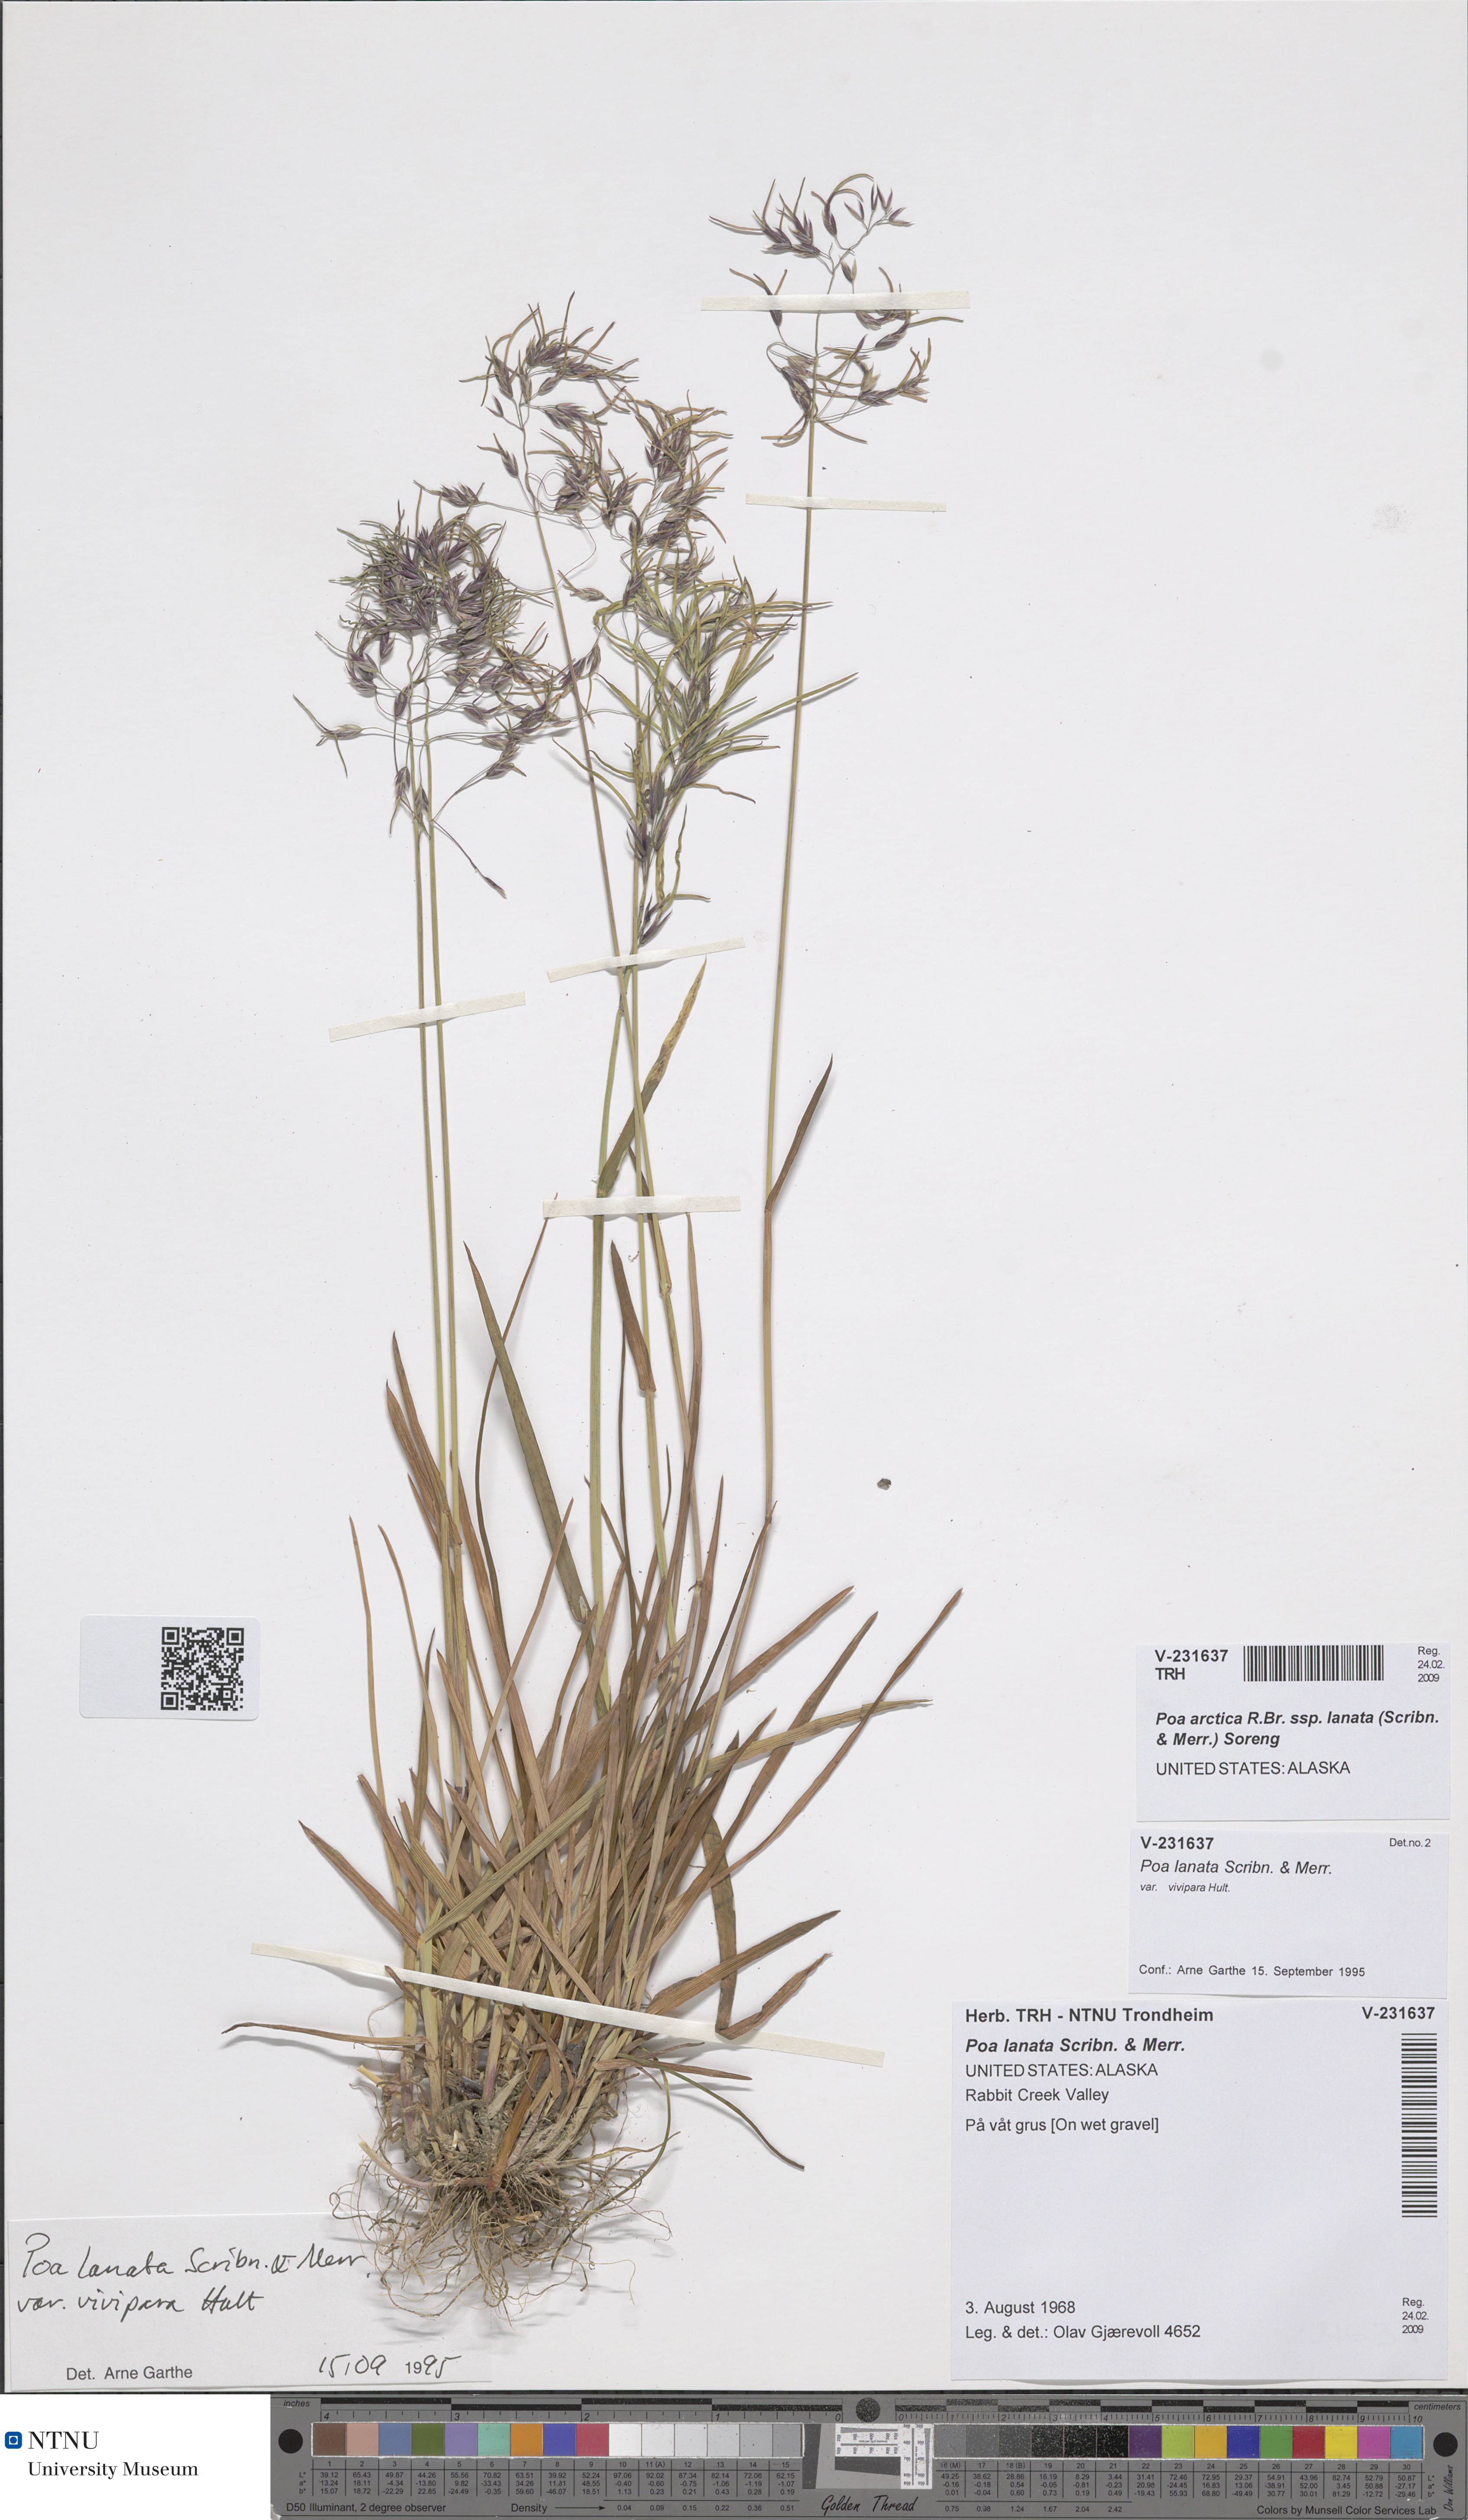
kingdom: Plantae
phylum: Tracheophyta
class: Liliopsida
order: Poales
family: Poaceae
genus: Poa
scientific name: Poa lanata
